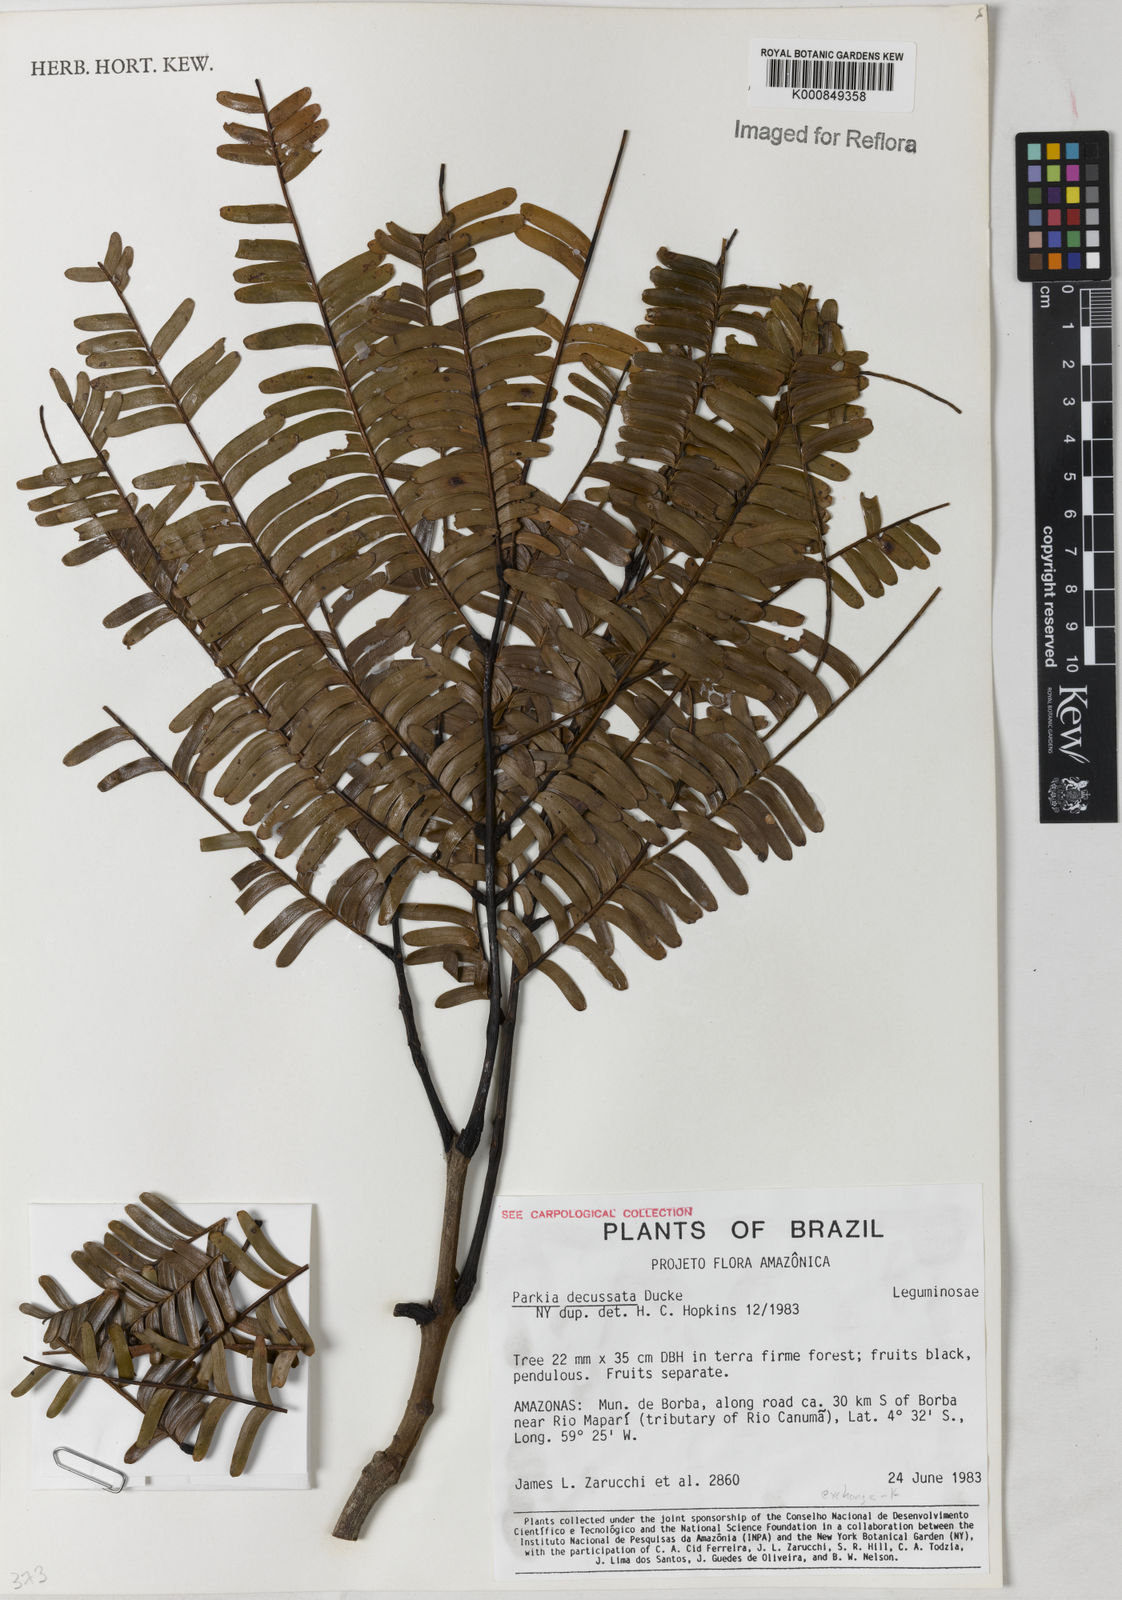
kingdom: Plantae
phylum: Tracheophyta
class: Magnoliopsida
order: Fabales
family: Fabaceae
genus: Parkia
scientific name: Parkia decussata
